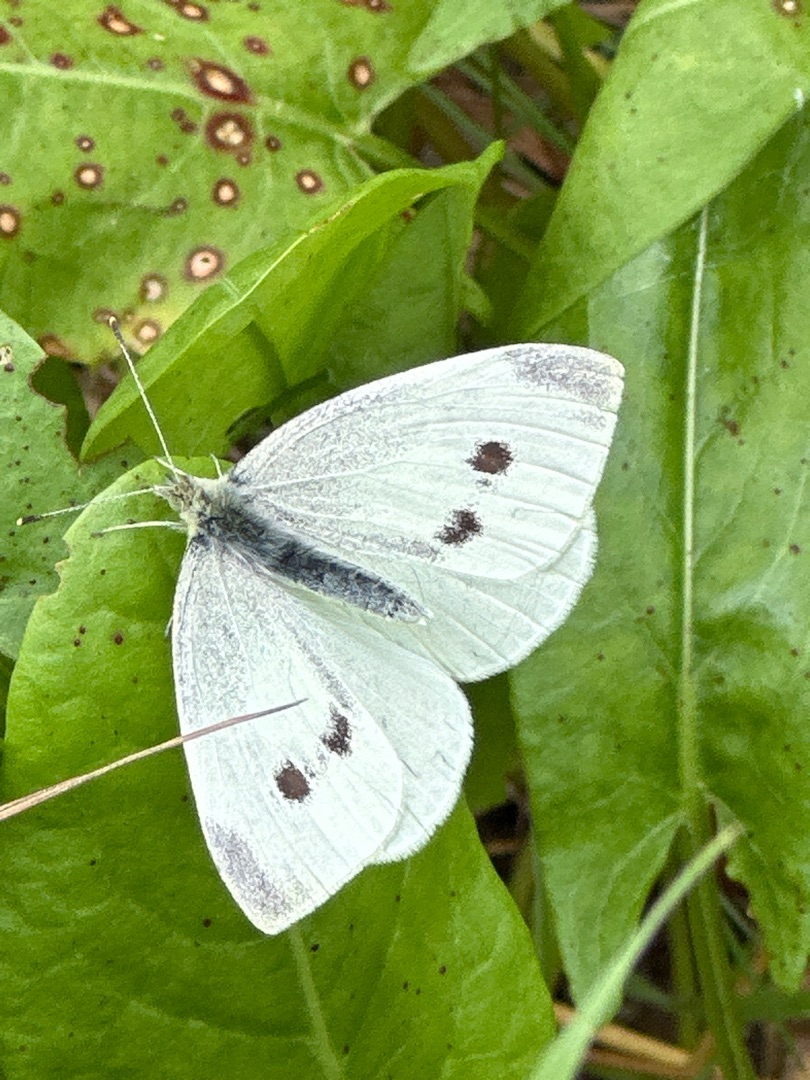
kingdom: Animalia
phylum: Arthropoda
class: Insecta
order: Lepidoptera
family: Pieridae
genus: Pieris
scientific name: Pieris rapae
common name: Lille kålsommerfugl
